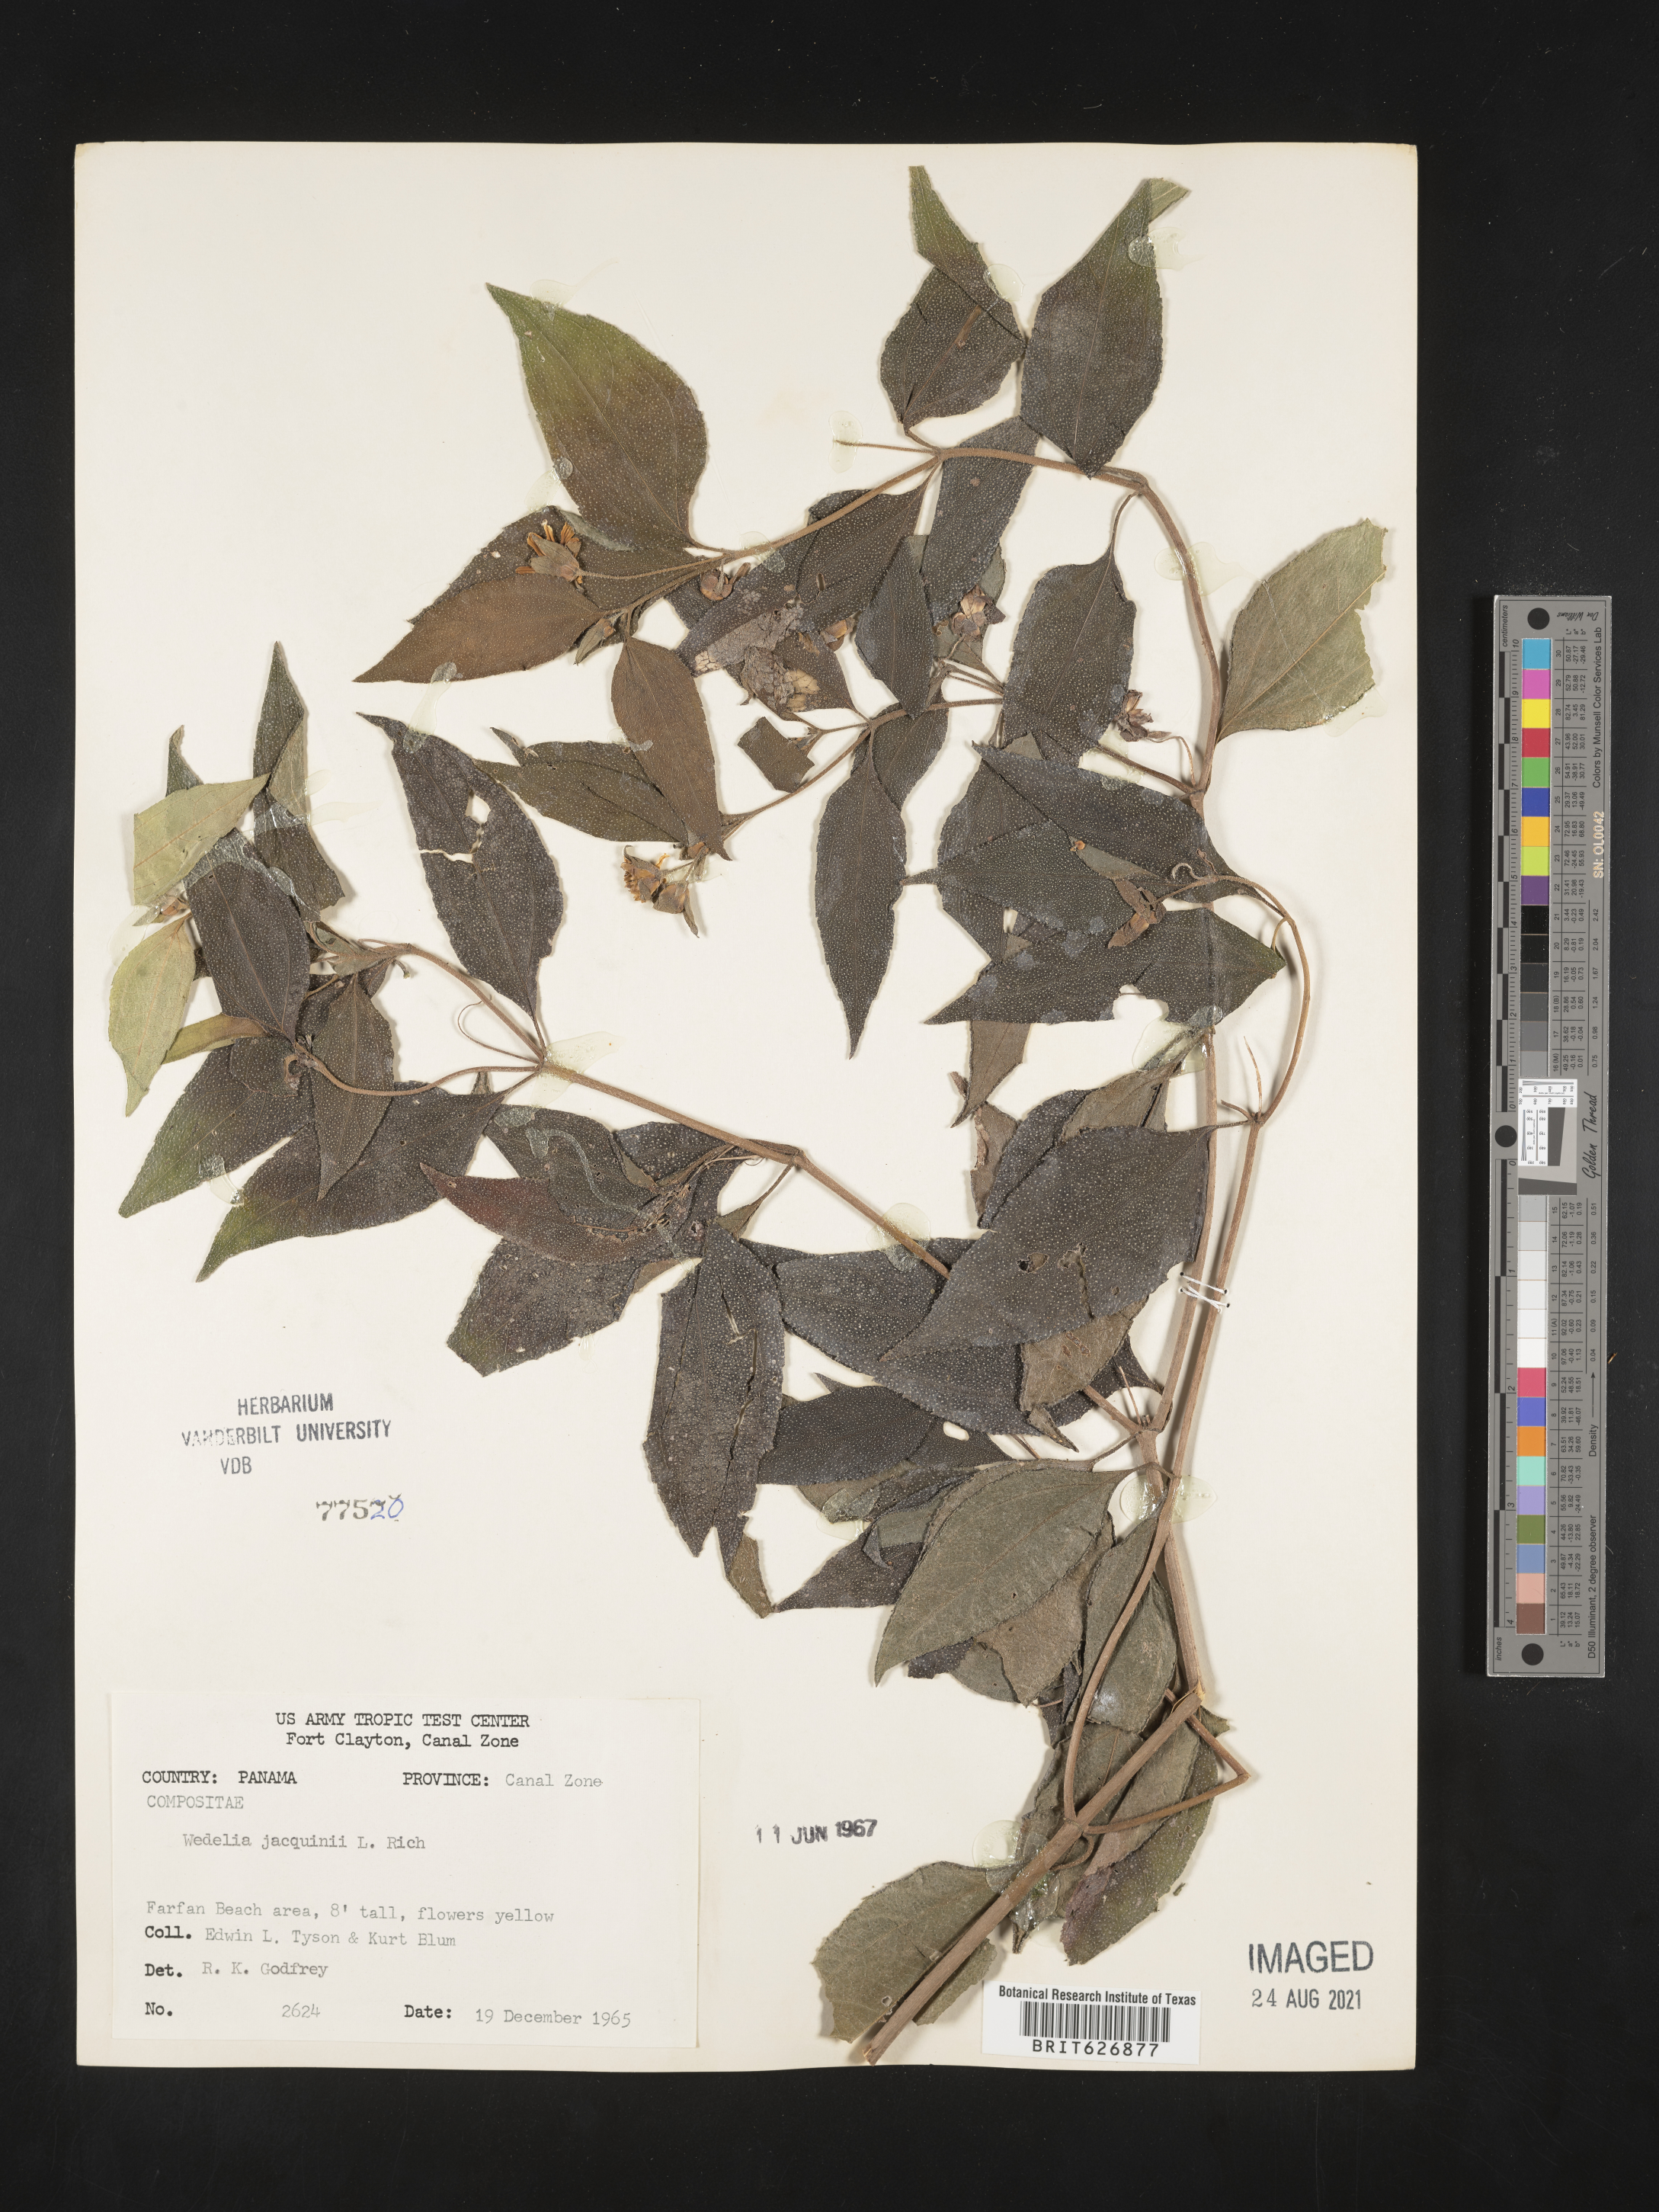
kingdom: Plantae
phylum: Tracheophyta
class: Magnoliopsida
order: Asterales
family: Asteraceae
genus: Wedelia
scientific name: Wedelia
